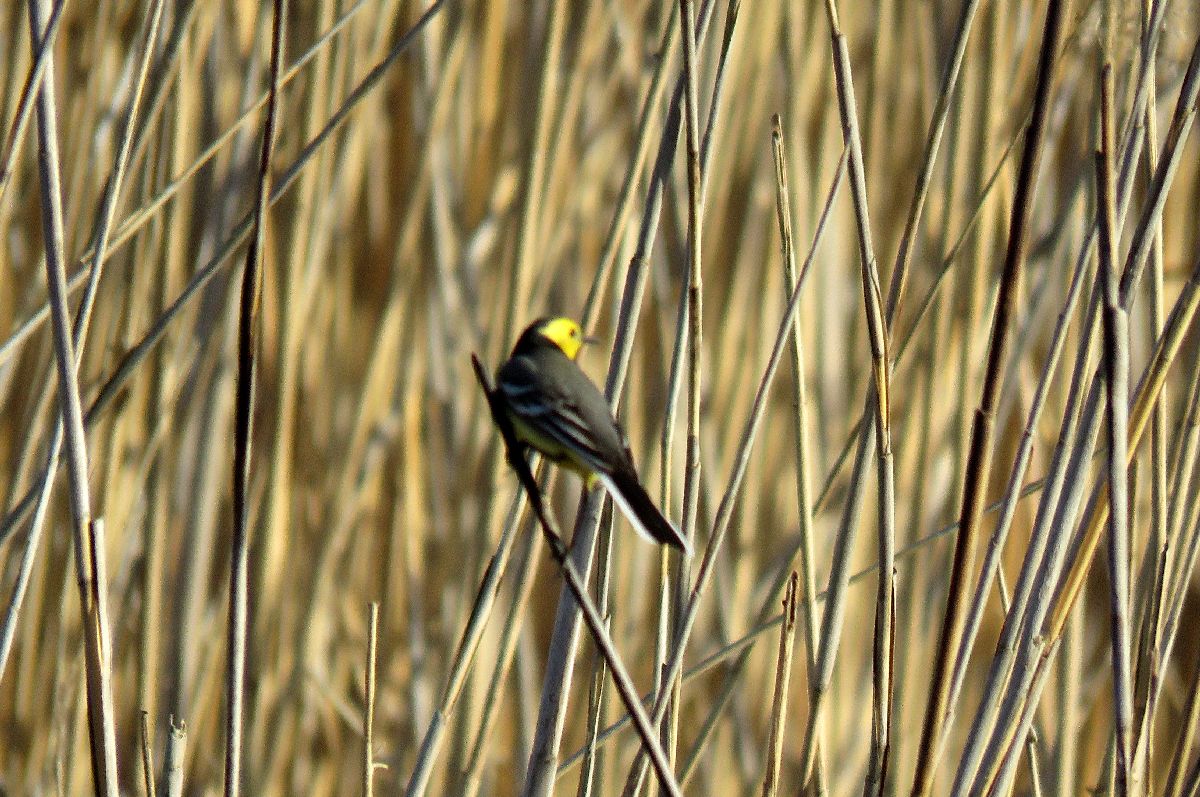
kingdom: Animalia
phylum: Chordata
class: Aves
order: Passeriformes
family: Motacillidae
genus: Motacilla
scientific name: Motacilla citreola
